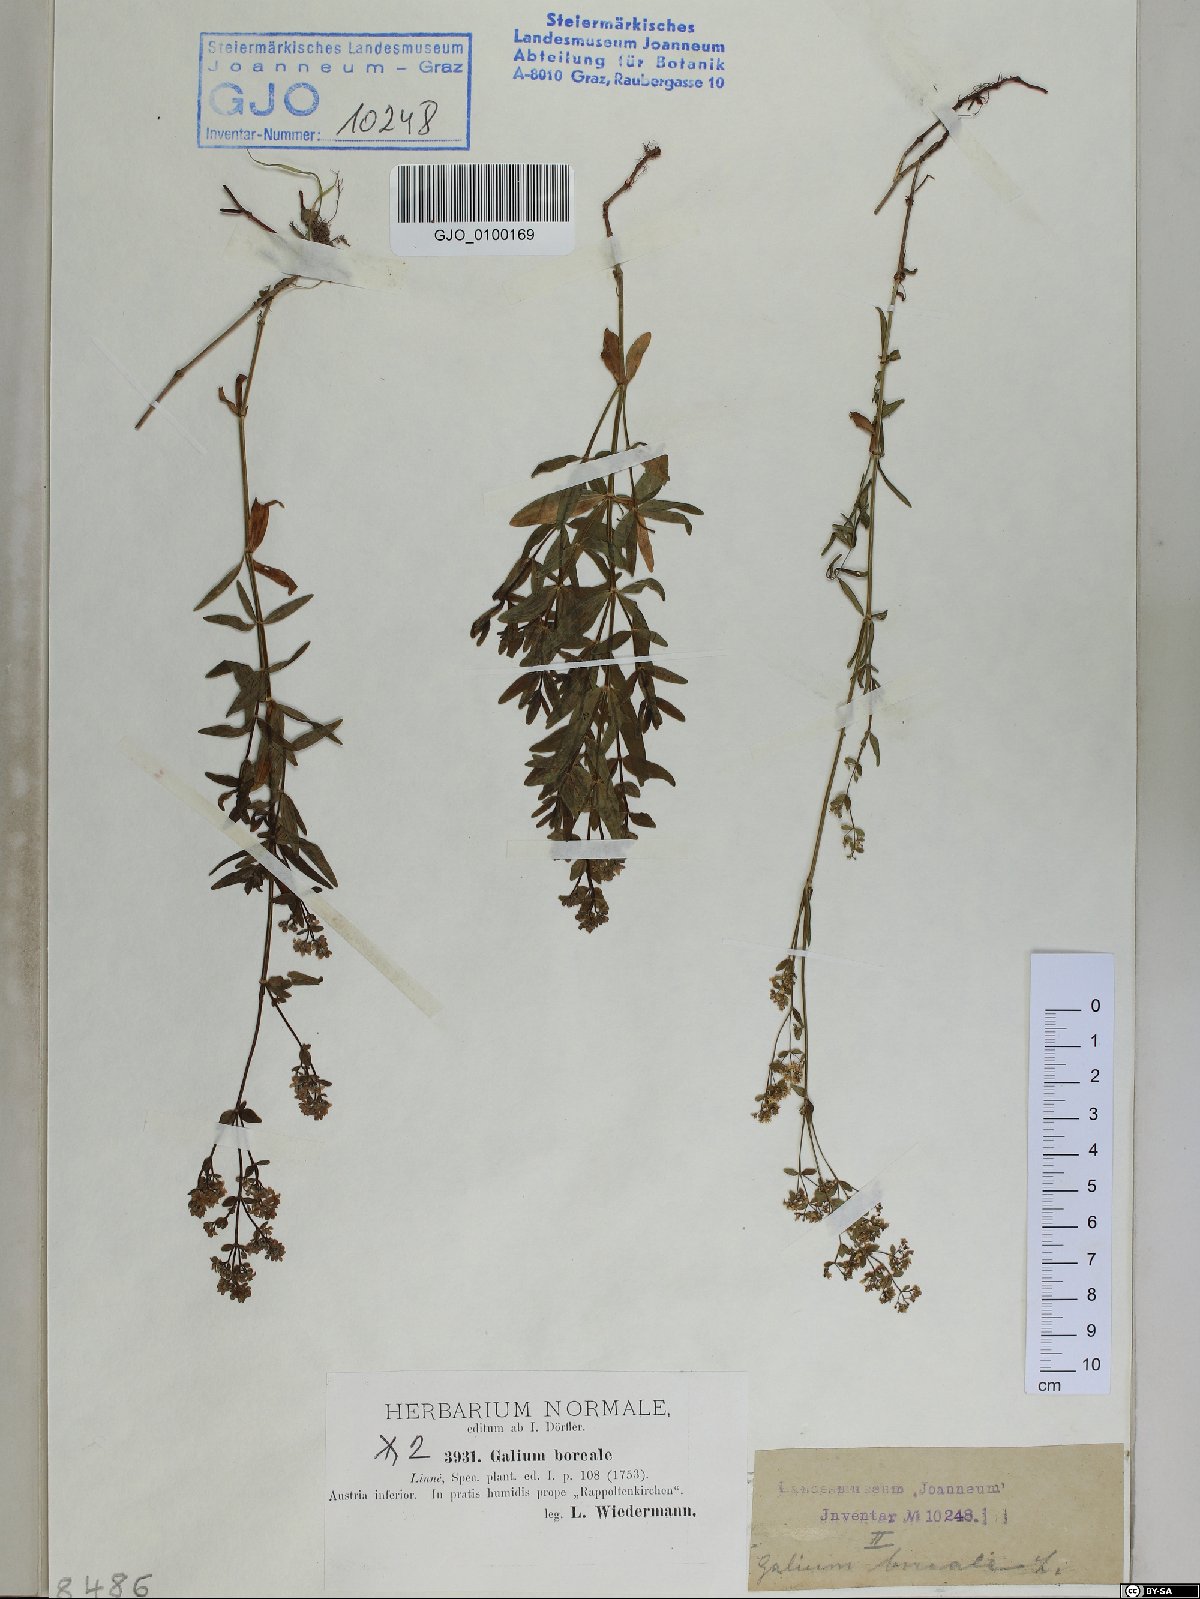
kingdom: Plantae
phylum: Tracheophyta
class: Magnoliopsida
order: Gentianales
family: Rubiaceae
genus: Galium
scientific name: Galium boreale
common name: Northern bedstraw
